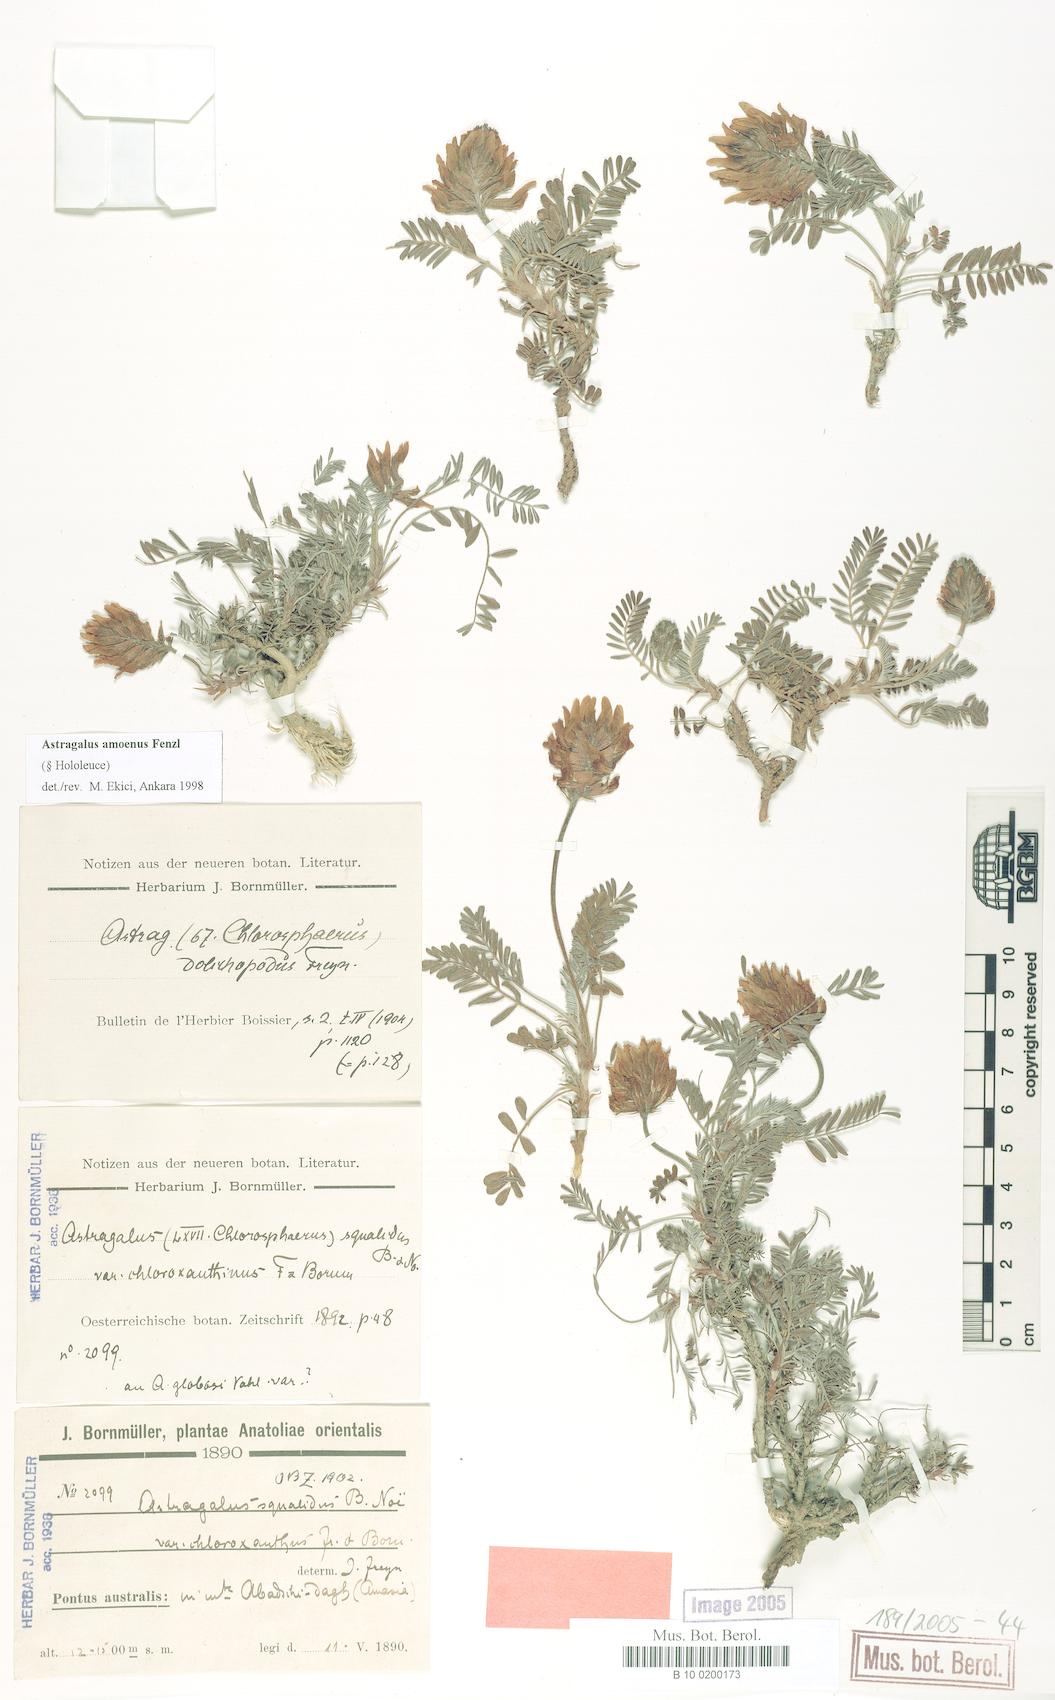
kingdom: Plantae
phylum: Tracheophyta
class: Magnoliopsida
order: Fabales
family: Fabaceae
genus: Astragalus
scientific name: Astragalus amoenus
